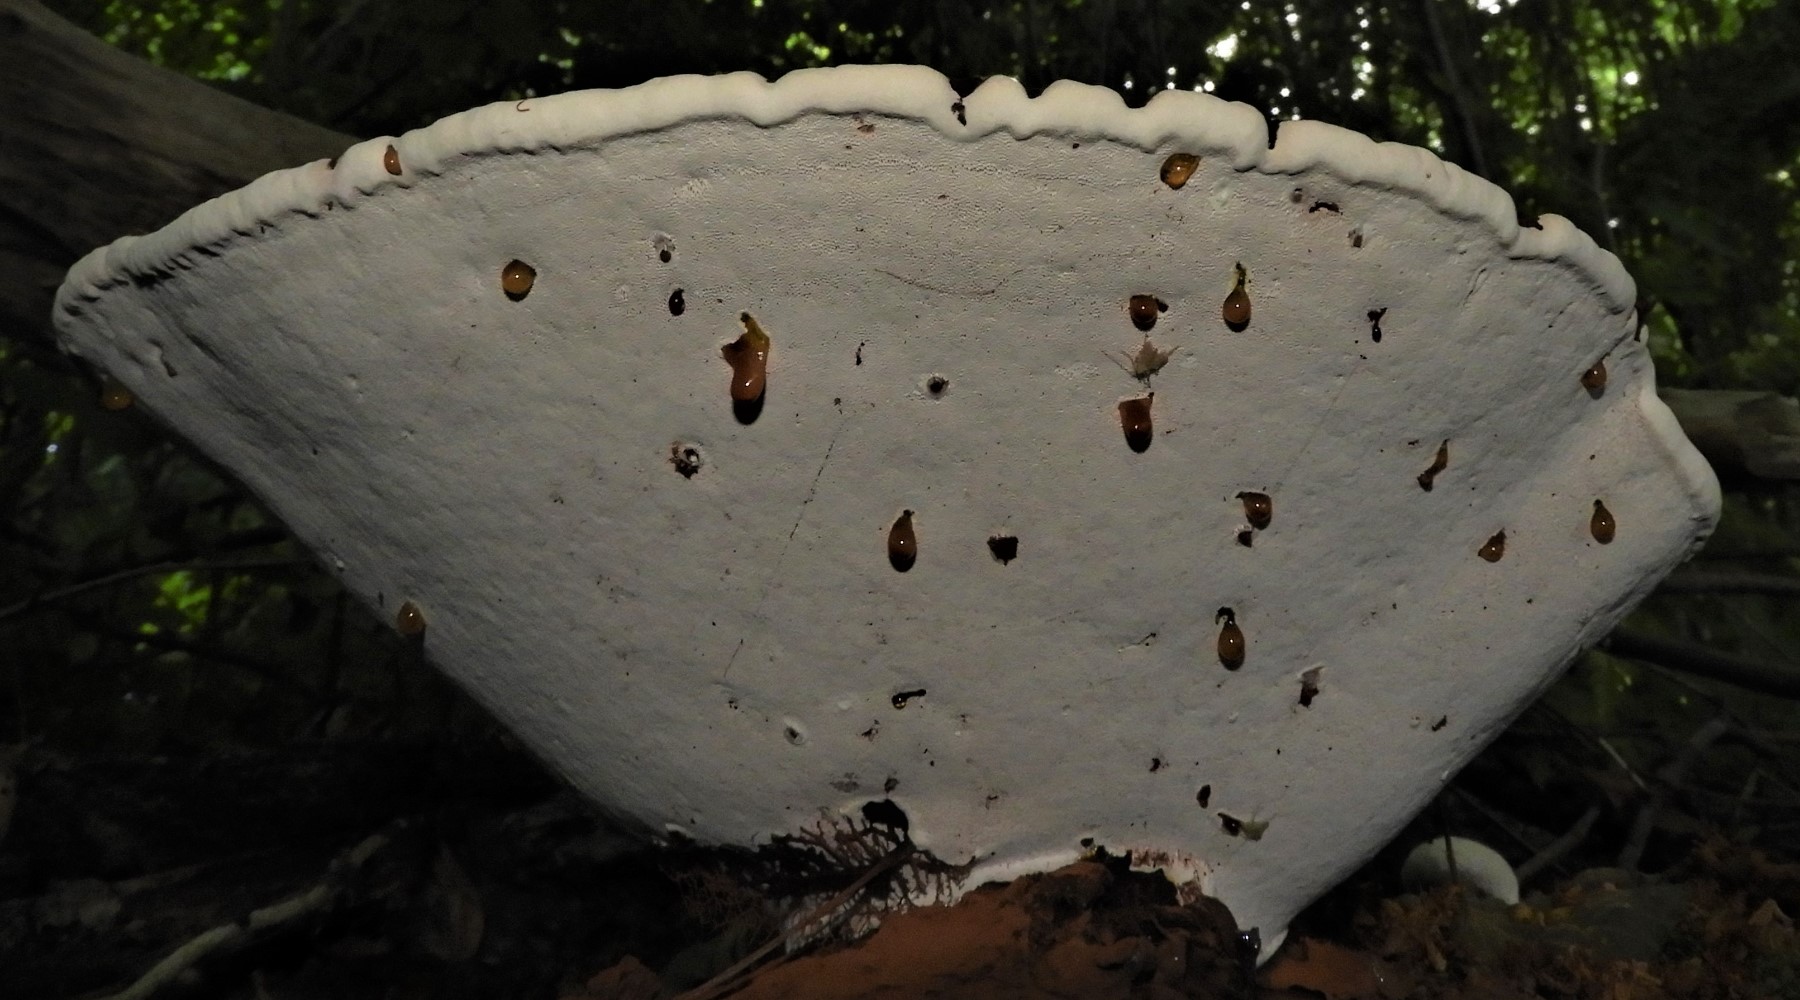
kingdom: Fungi
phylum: Basidiomycota
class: Agaricomycetes
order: Polyporales
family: Polyporaceae
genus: Ganoderma
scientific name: Ganoderma applanatum
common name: flad lakporesvamp
